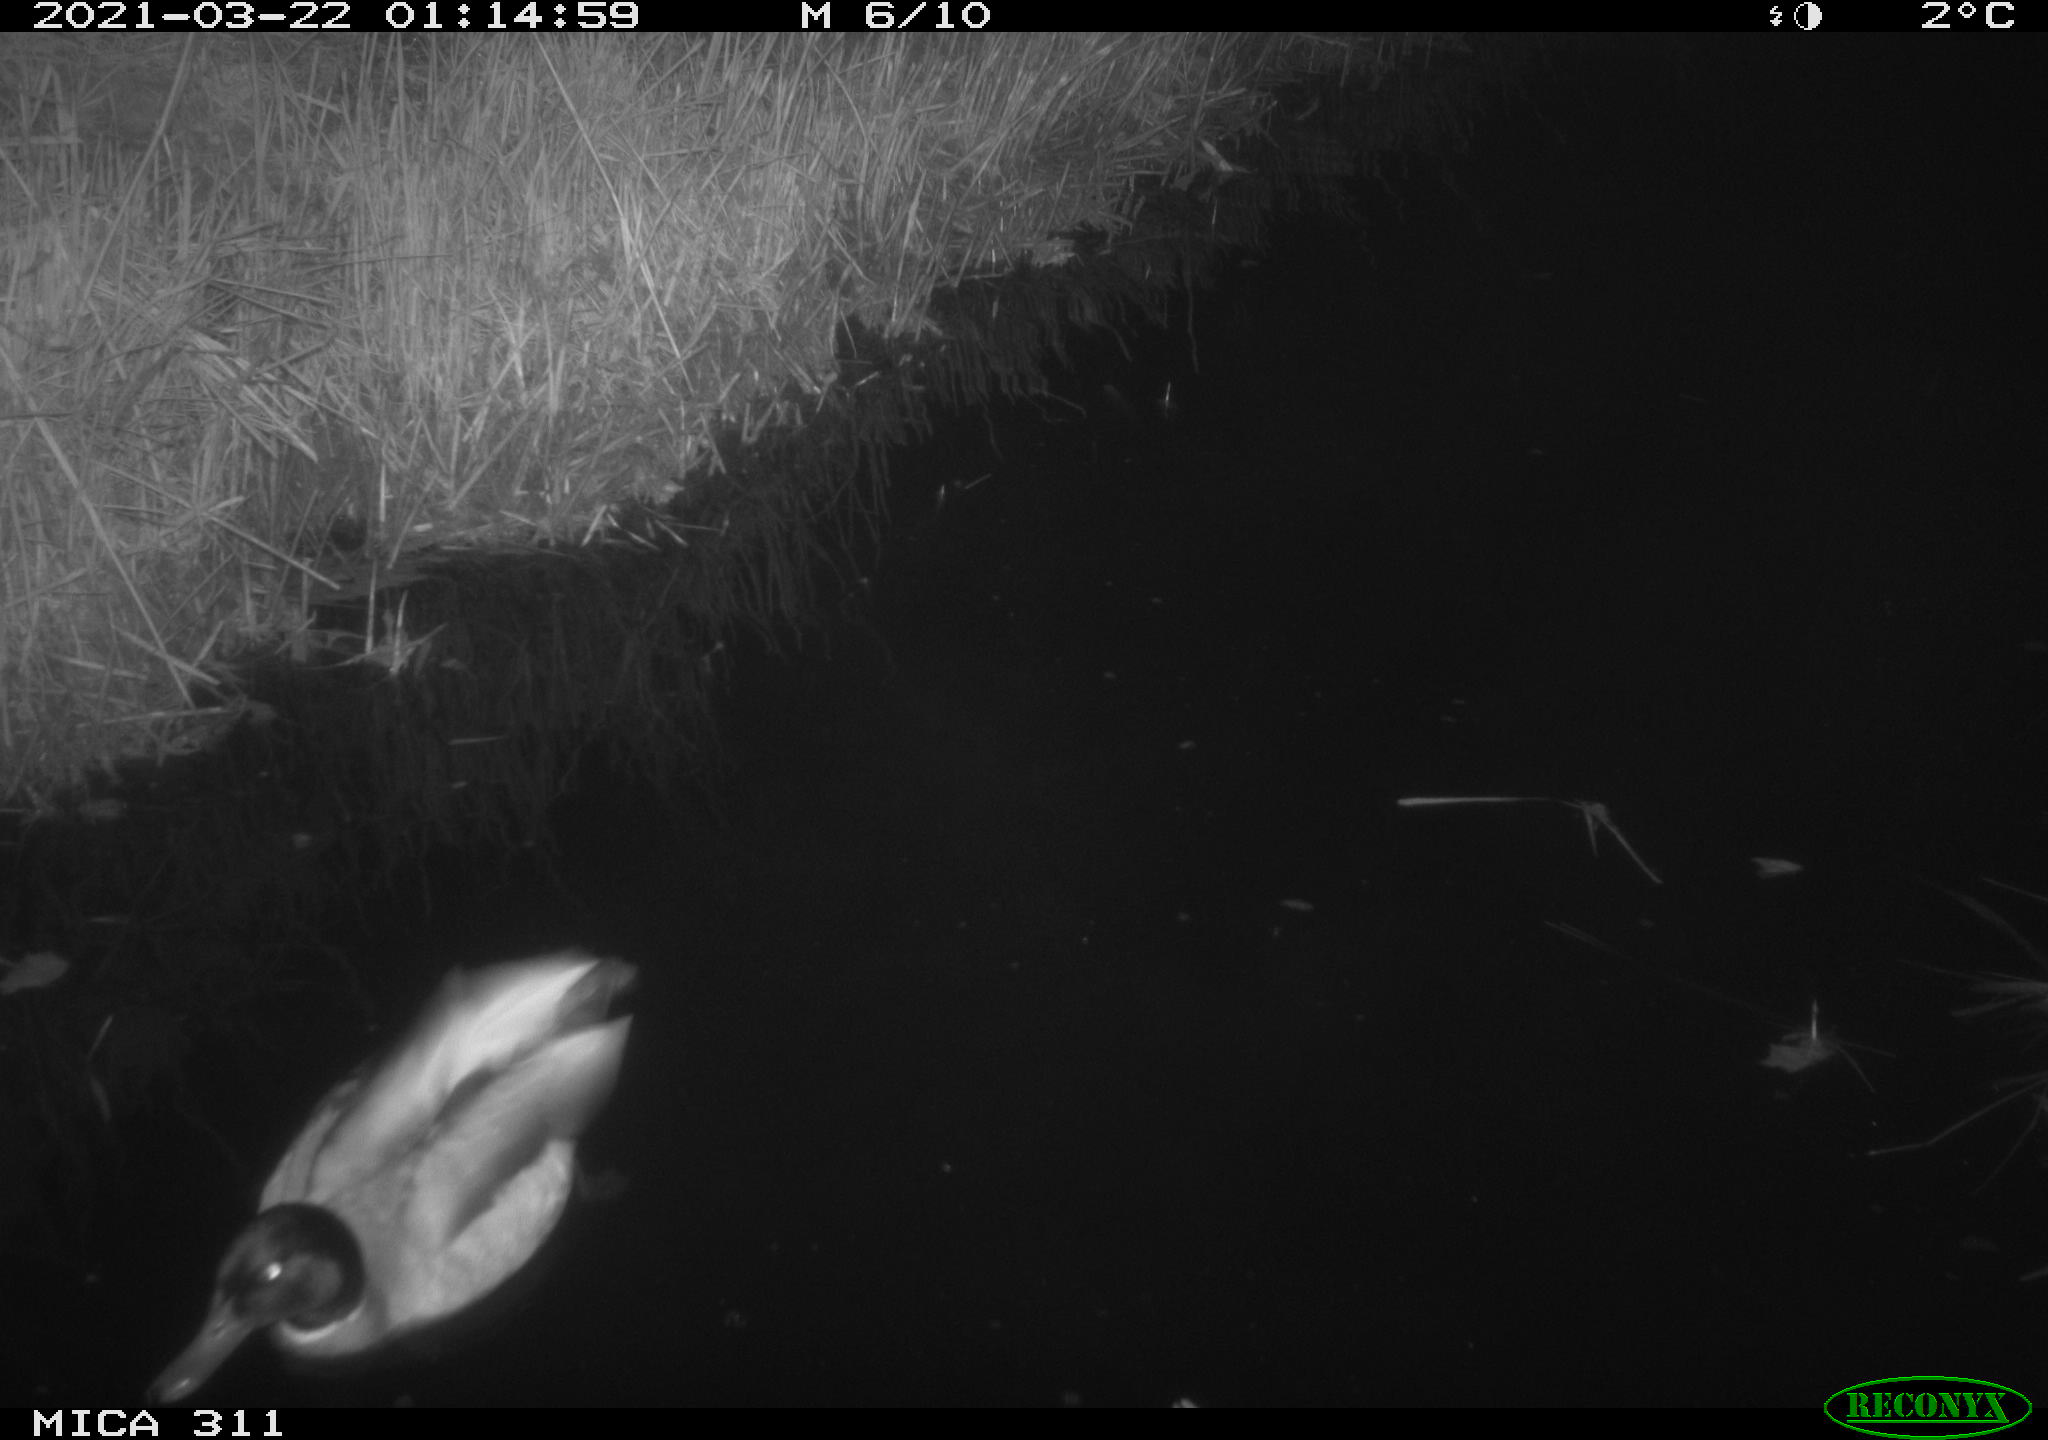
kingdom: Animalia
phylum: Chordata
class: Aves
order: Anseriformes
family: Anatidae
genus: Anas
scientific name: Anas platyrhynchos
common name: Mallard
